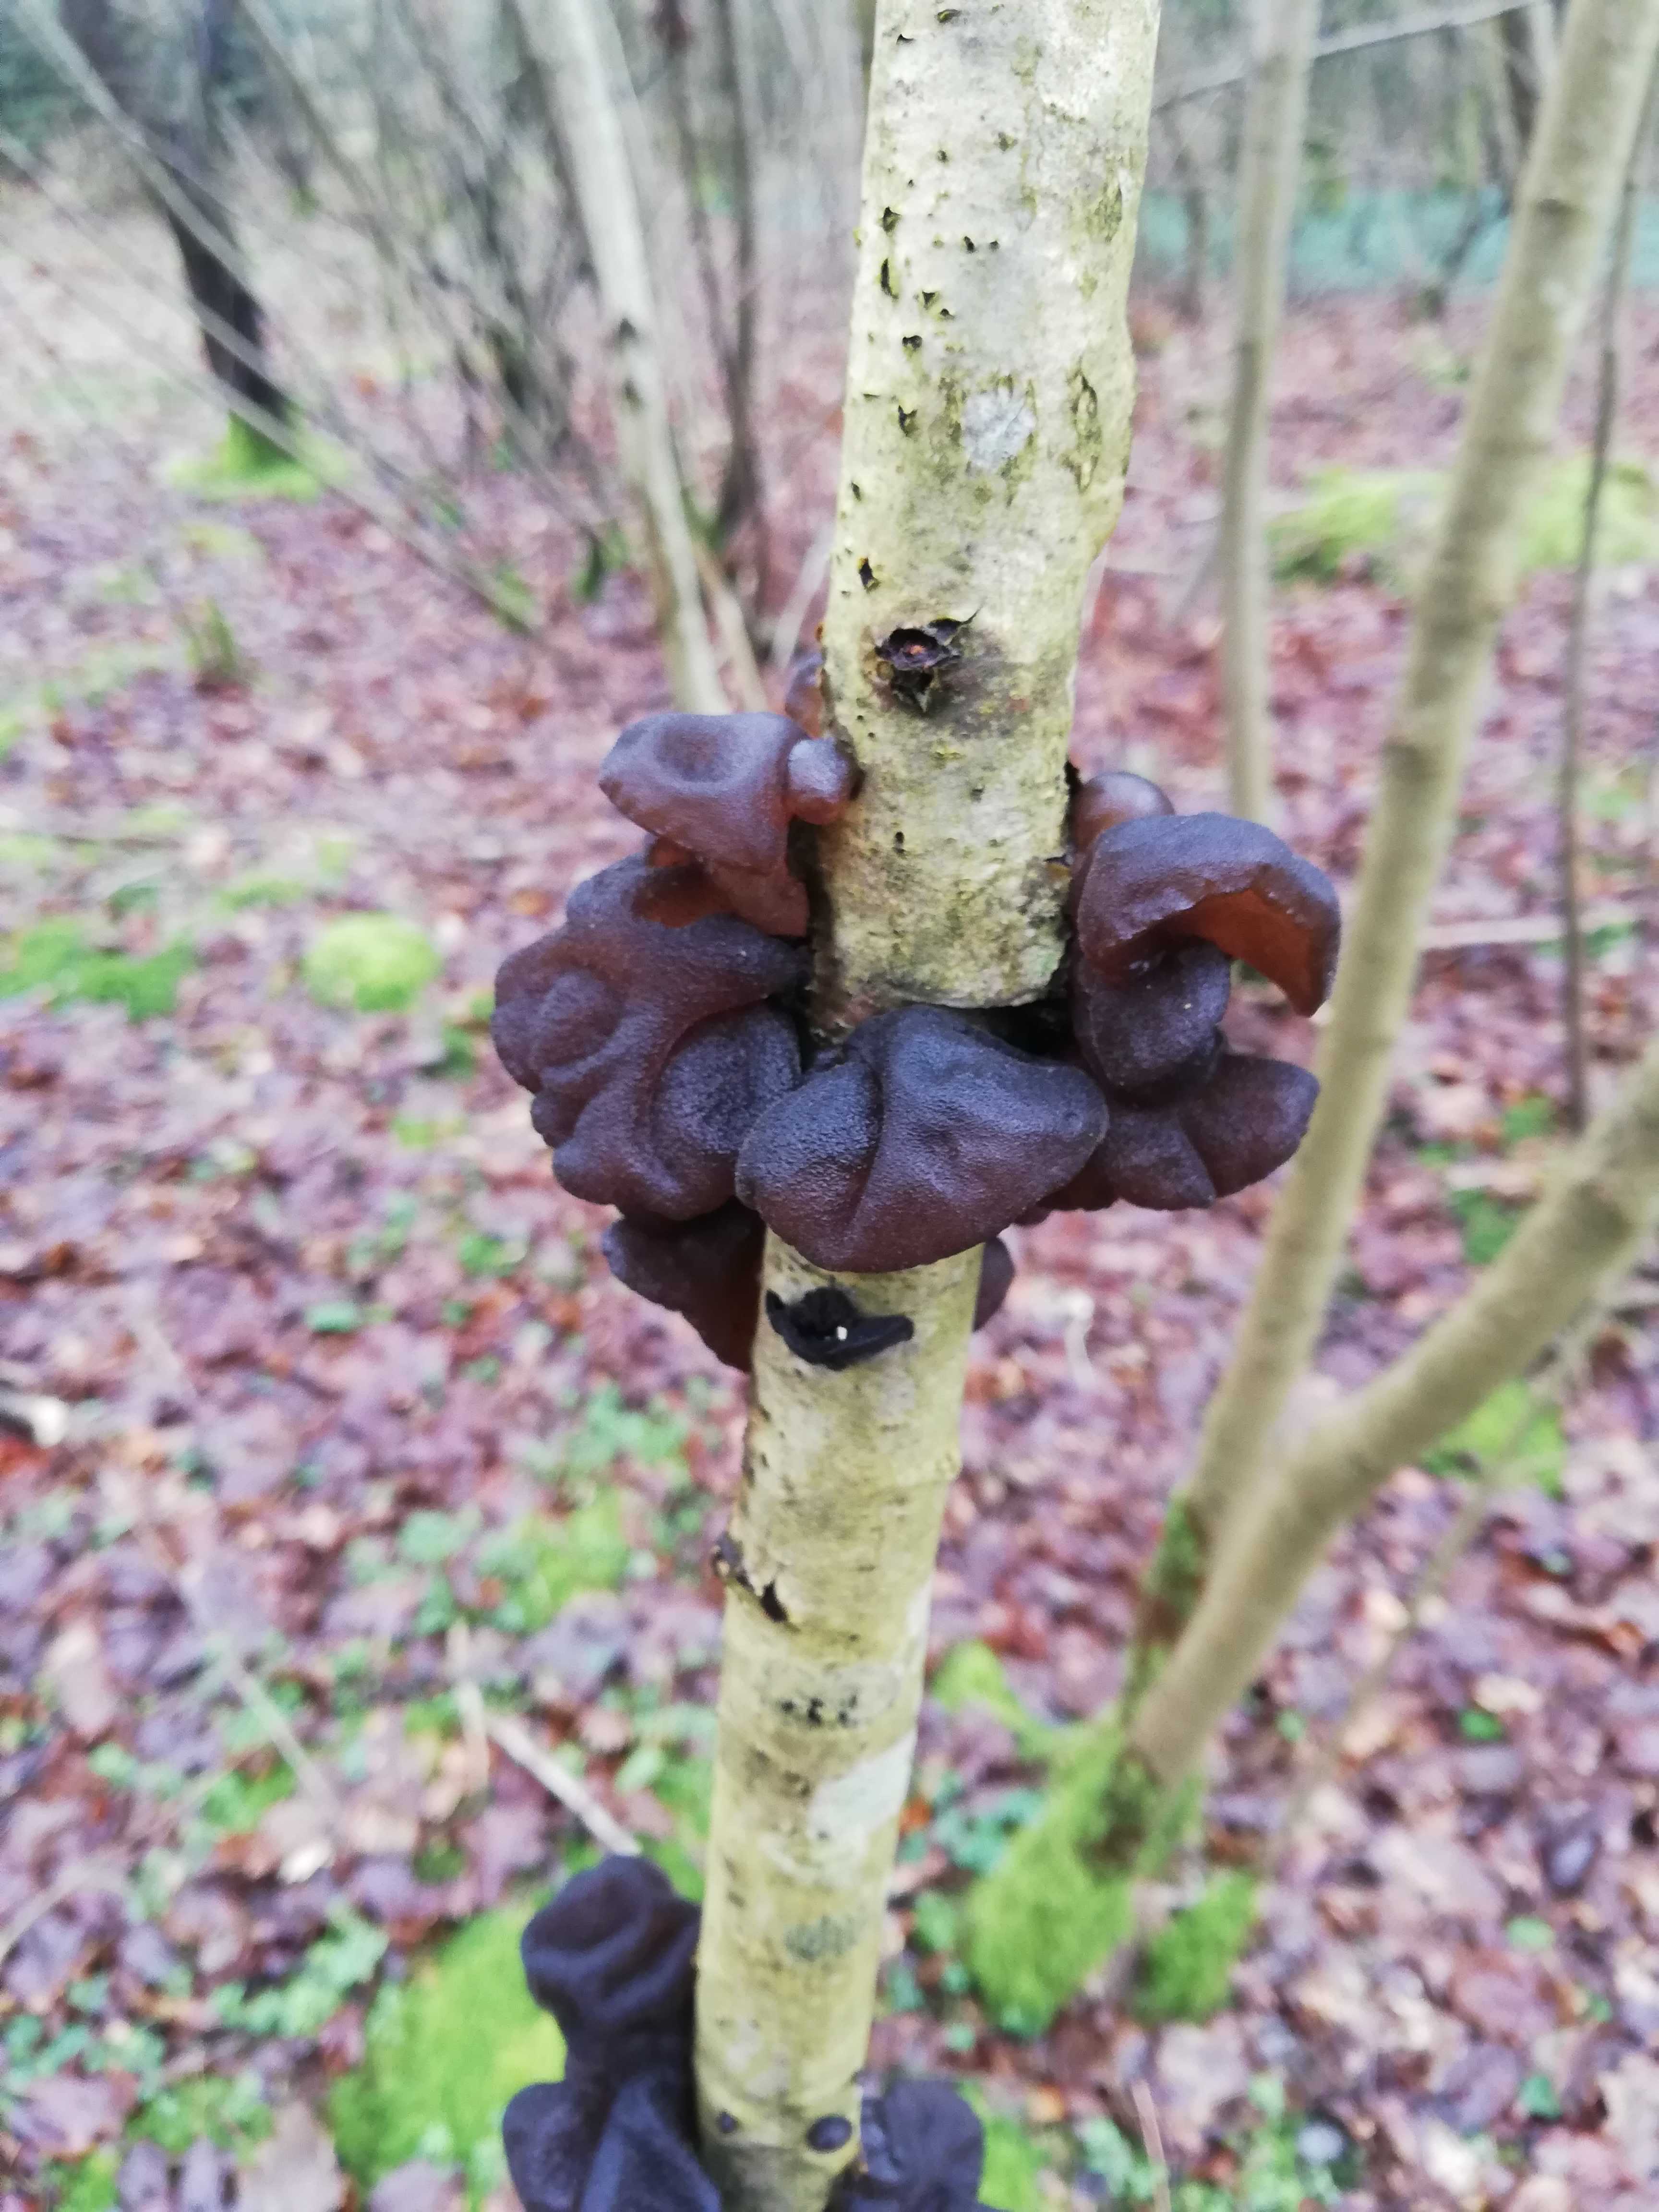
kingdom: Fungi
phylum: Basidiomycota
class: Agaricomycetes
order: Auriculariales
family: Auriculariaceae
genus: Exidia
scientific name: Exidia glandulosa
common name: ege-bævretop
